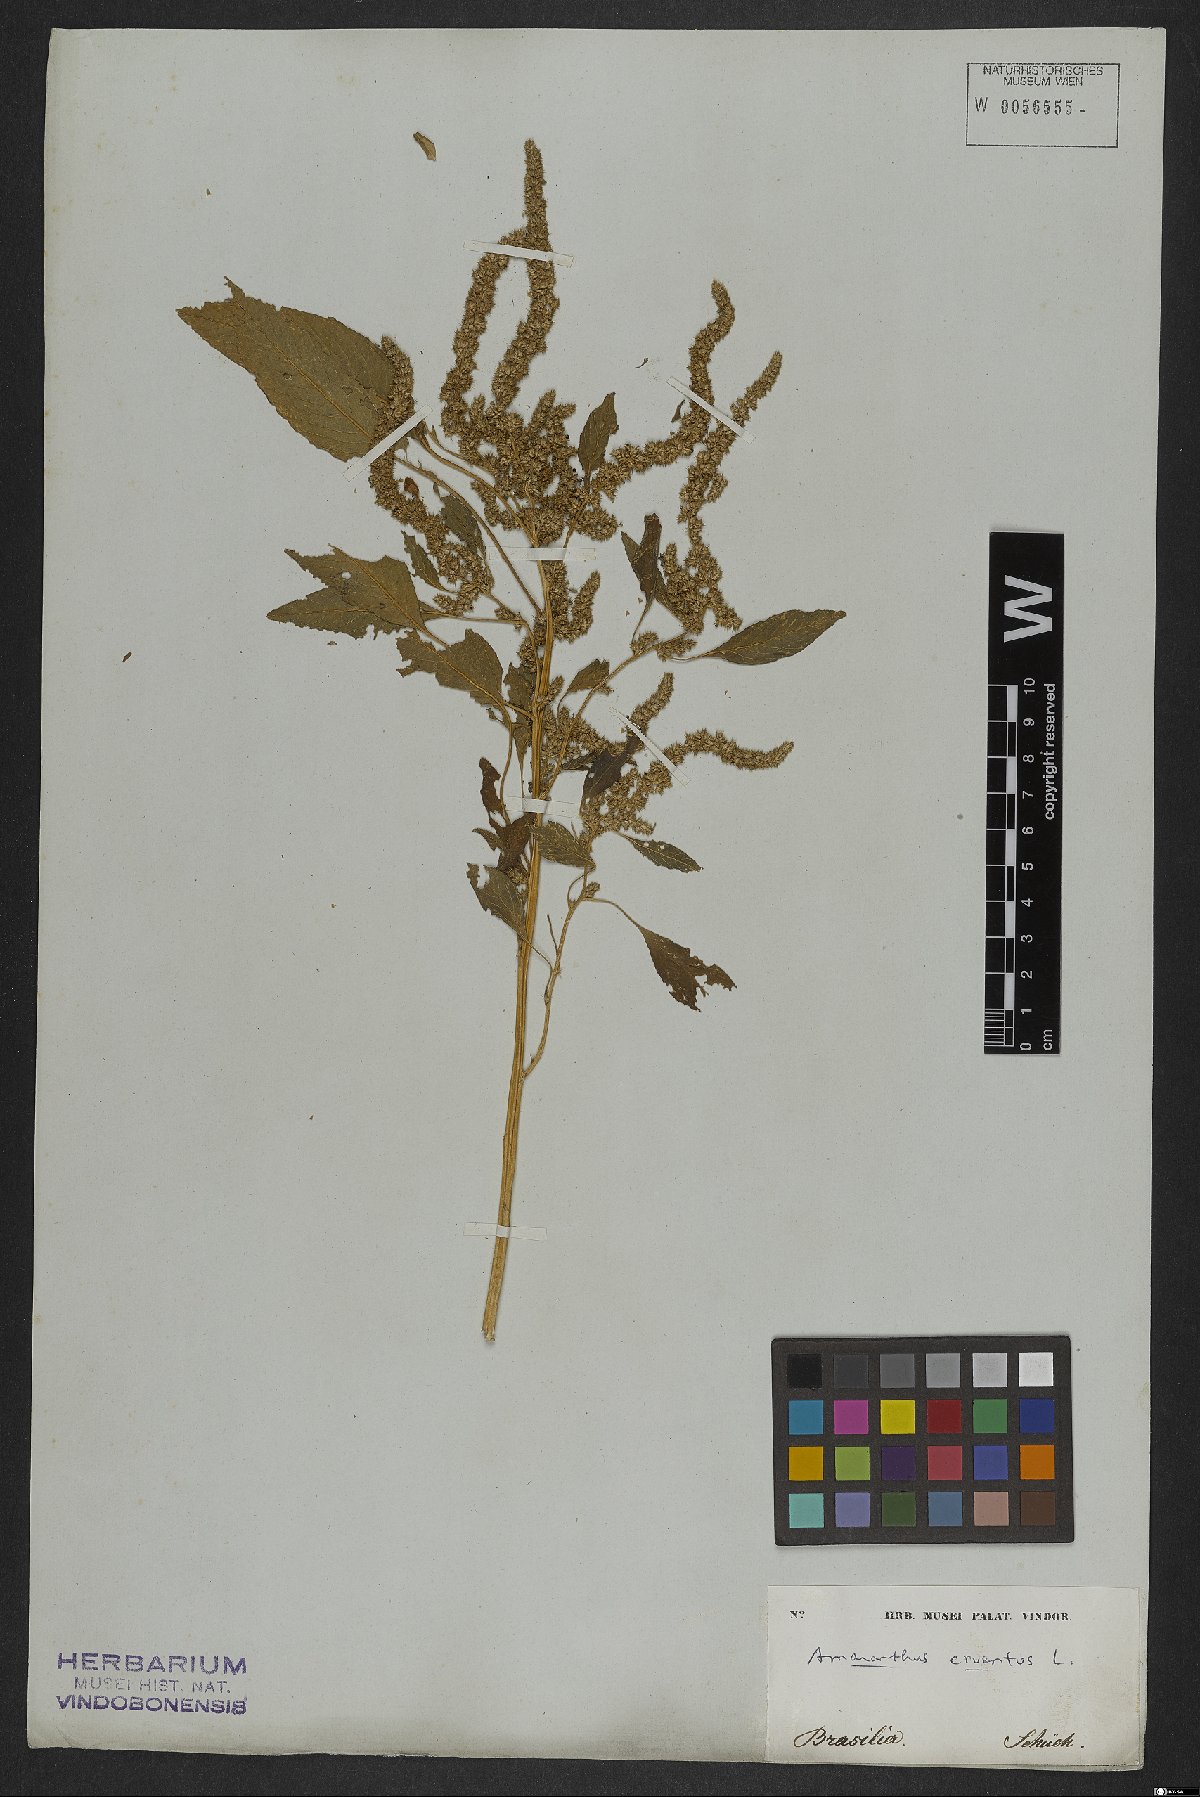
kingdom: Plantae
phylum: Tracheophyta
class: Magnoliopsida
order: Caryophyllales
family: Amaranthaceae
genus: Amaranthus
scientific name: Amaranthus cruentus
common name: Purple amaranth
